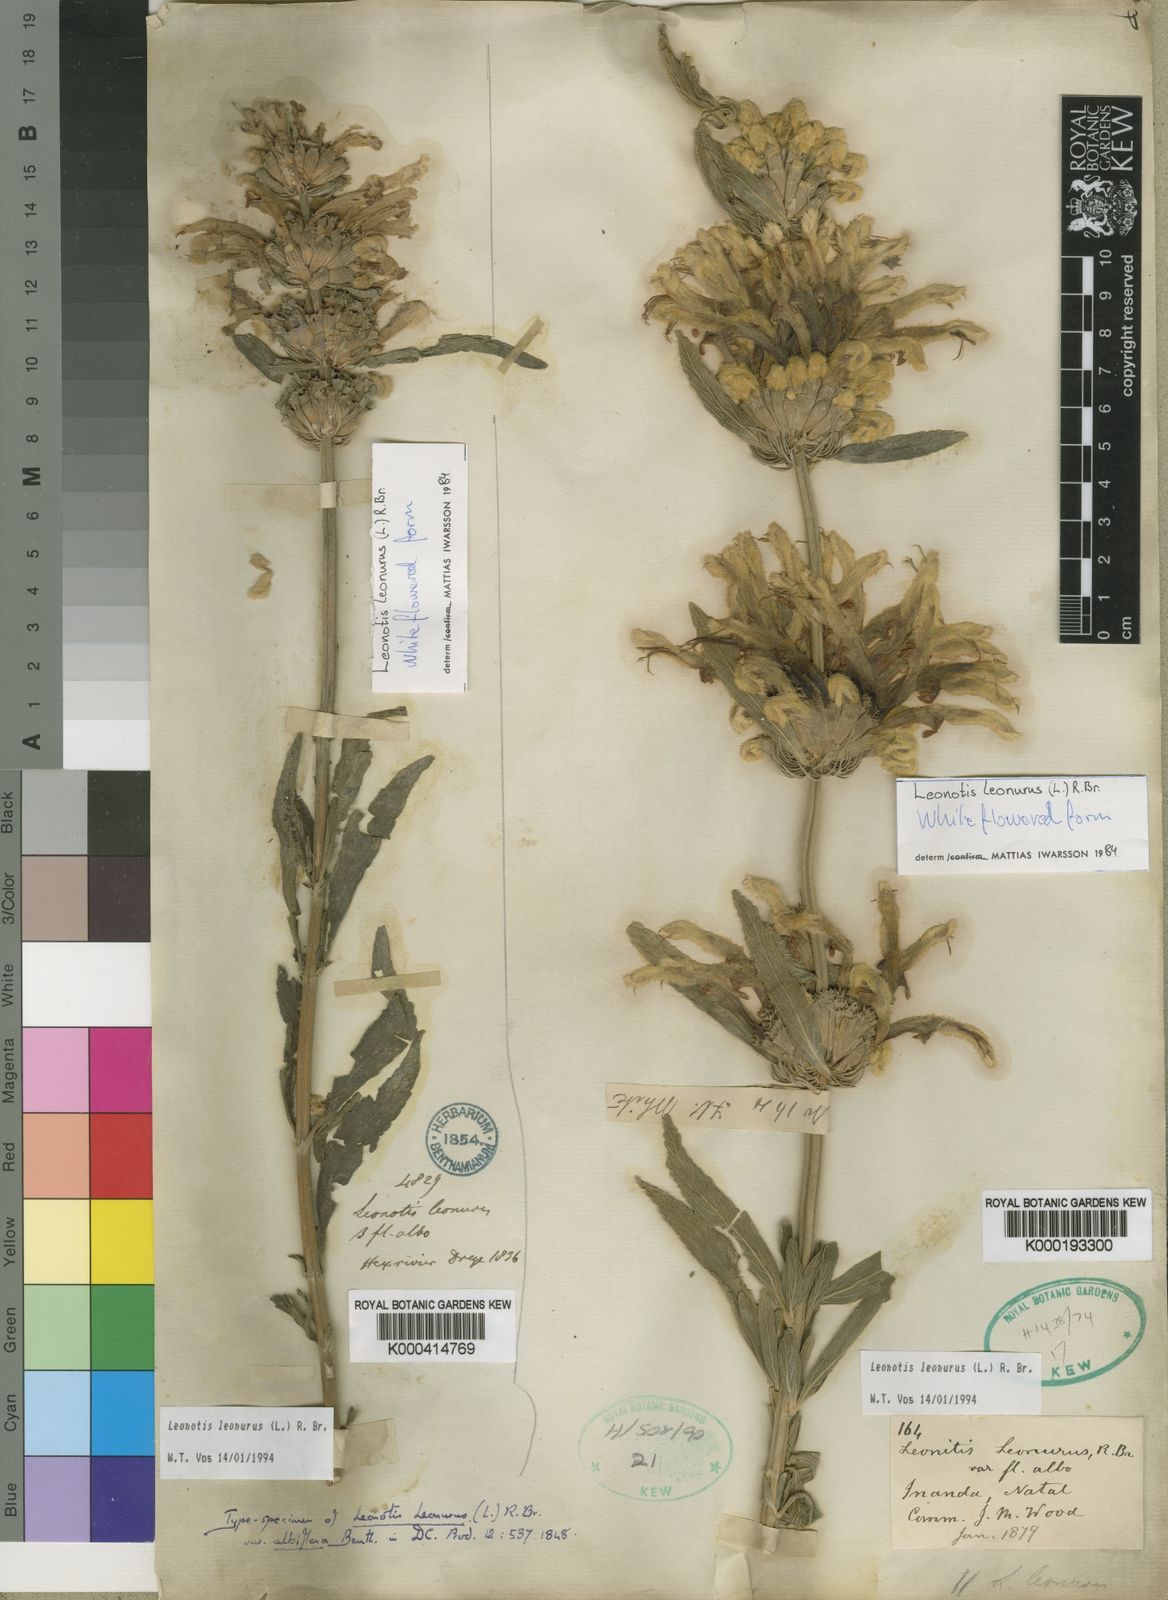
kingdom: Plantae
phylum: Tracheophyta
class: Magnoliopsida
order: Lamiales
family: Lamiaceae
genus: Leonotis
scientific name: Leonotis leonurus
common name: Lion's ear
